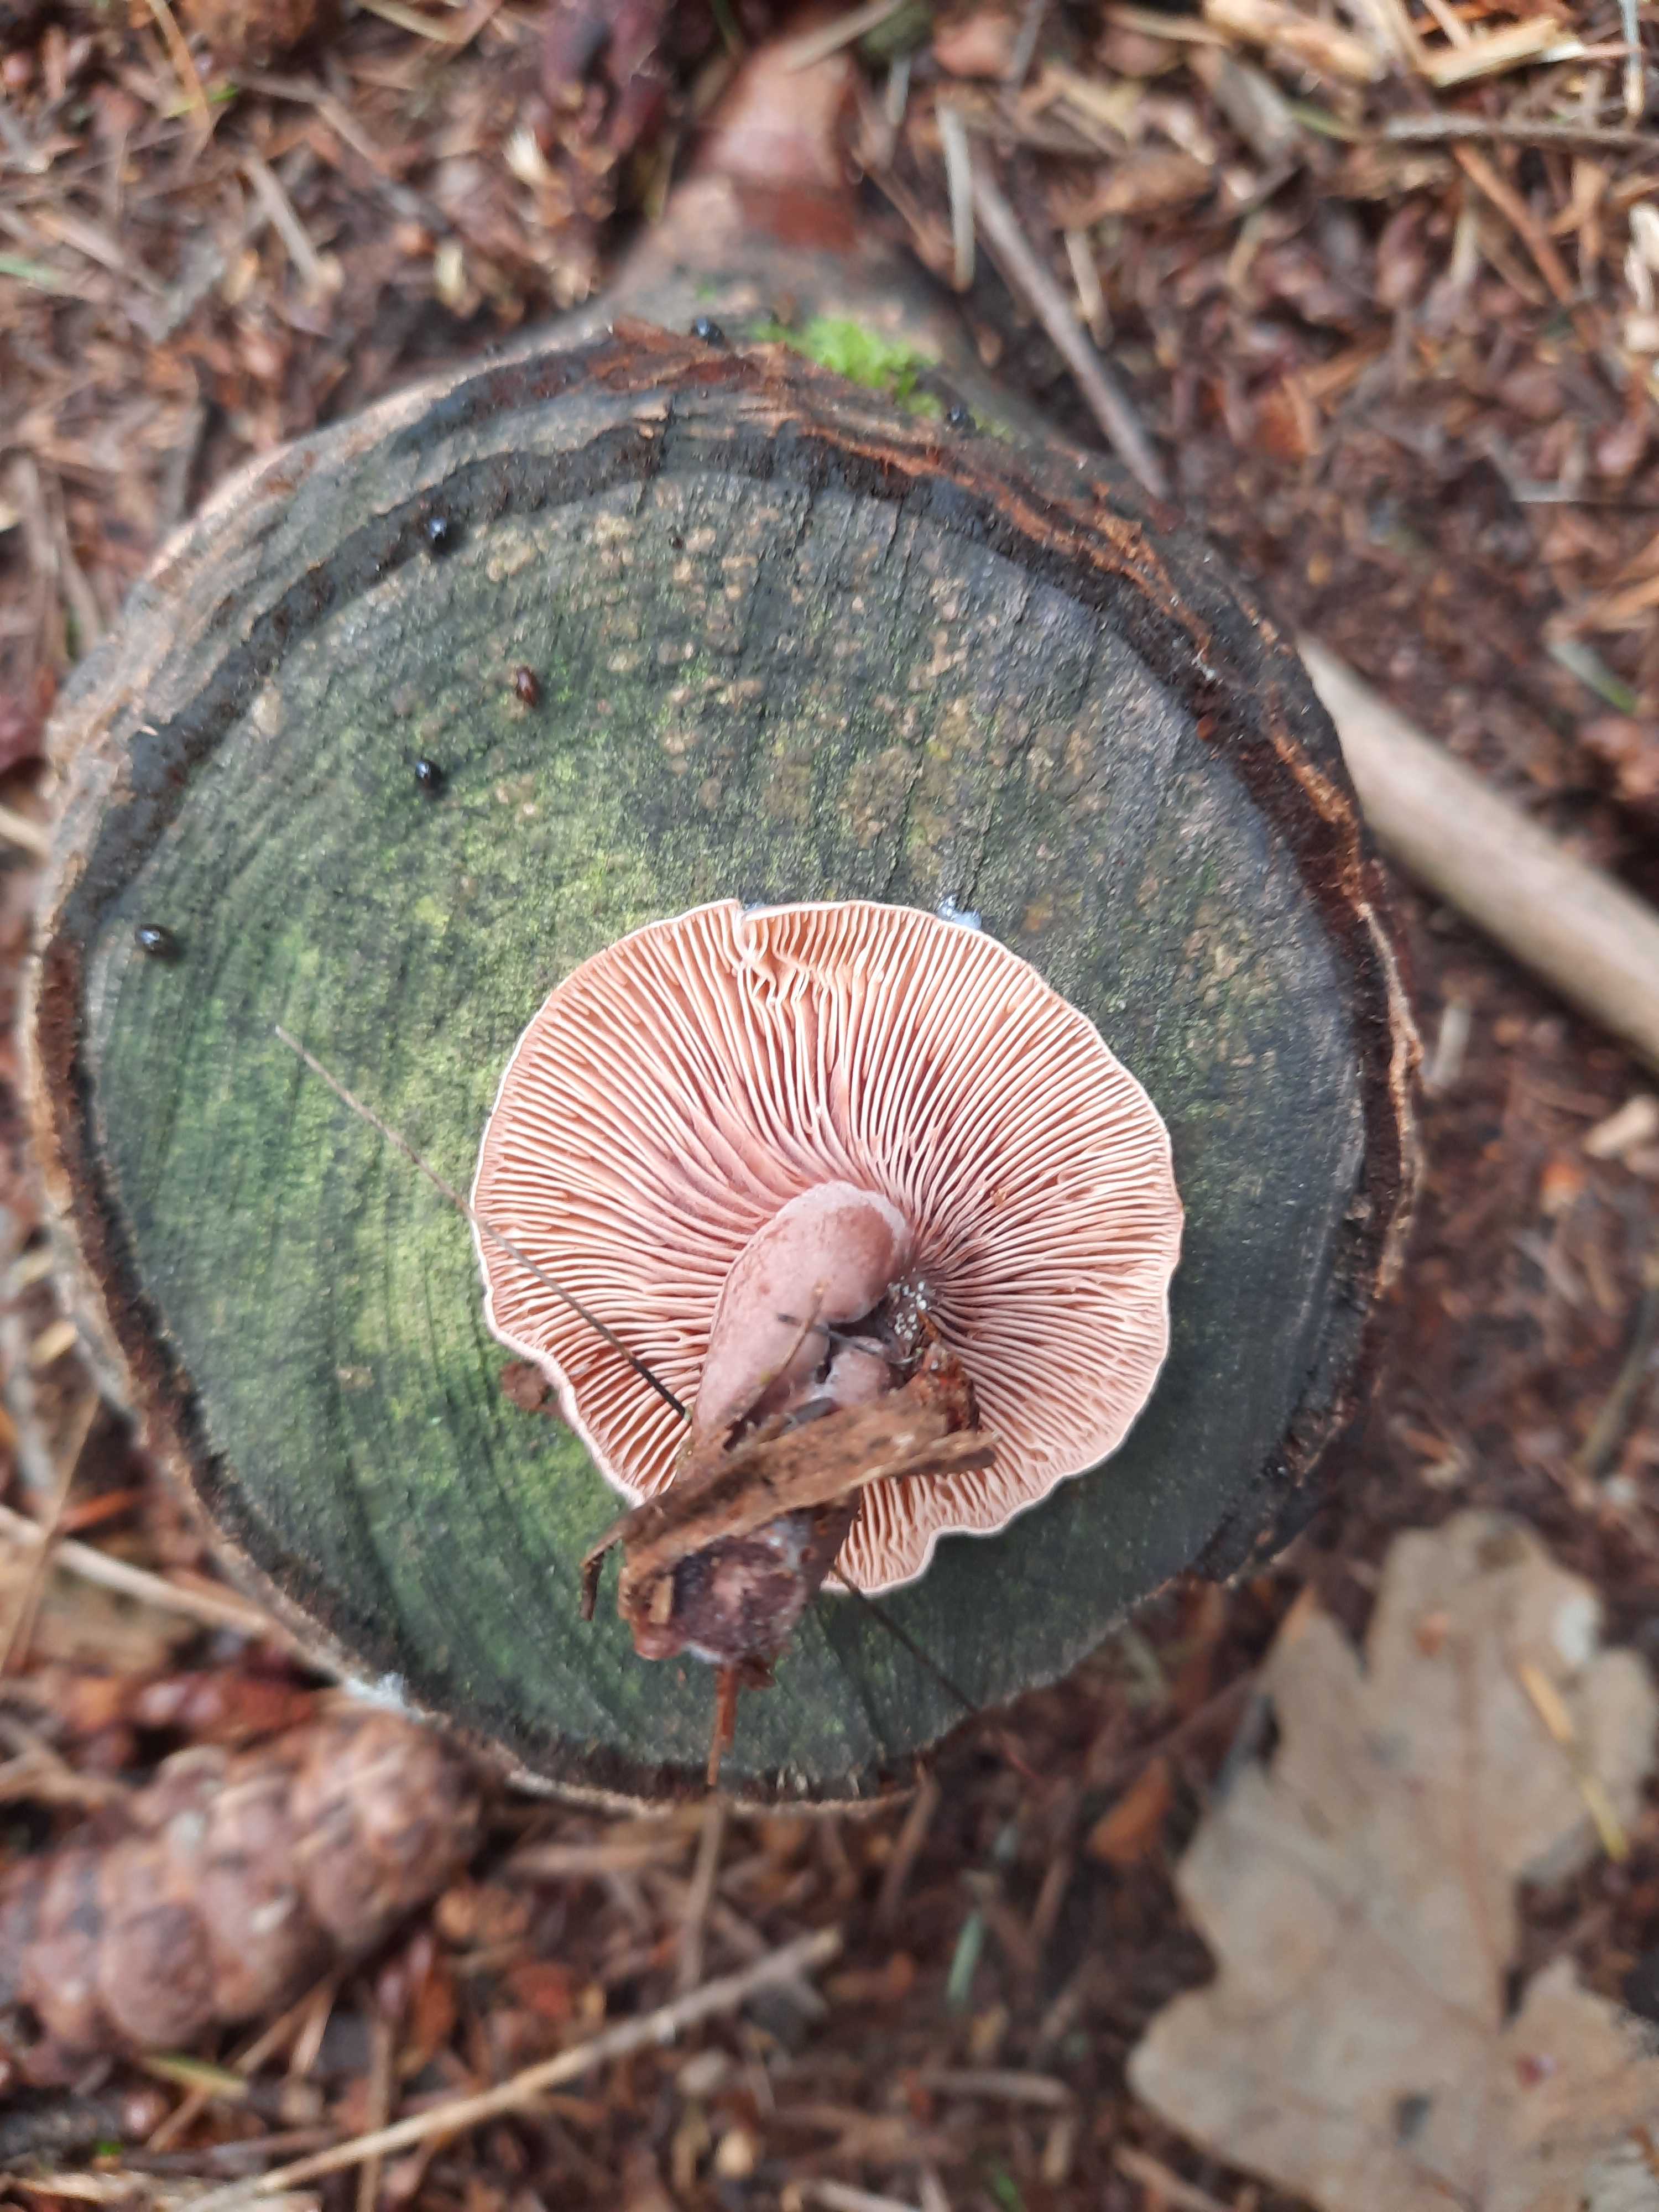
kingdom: Fungi
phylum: Basidiomycota
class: Agaricomycetes
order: Russulales
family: Russulaceae
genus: Lactarius
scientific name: Lactarius camphoratus
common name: kamfer-mælkehat
